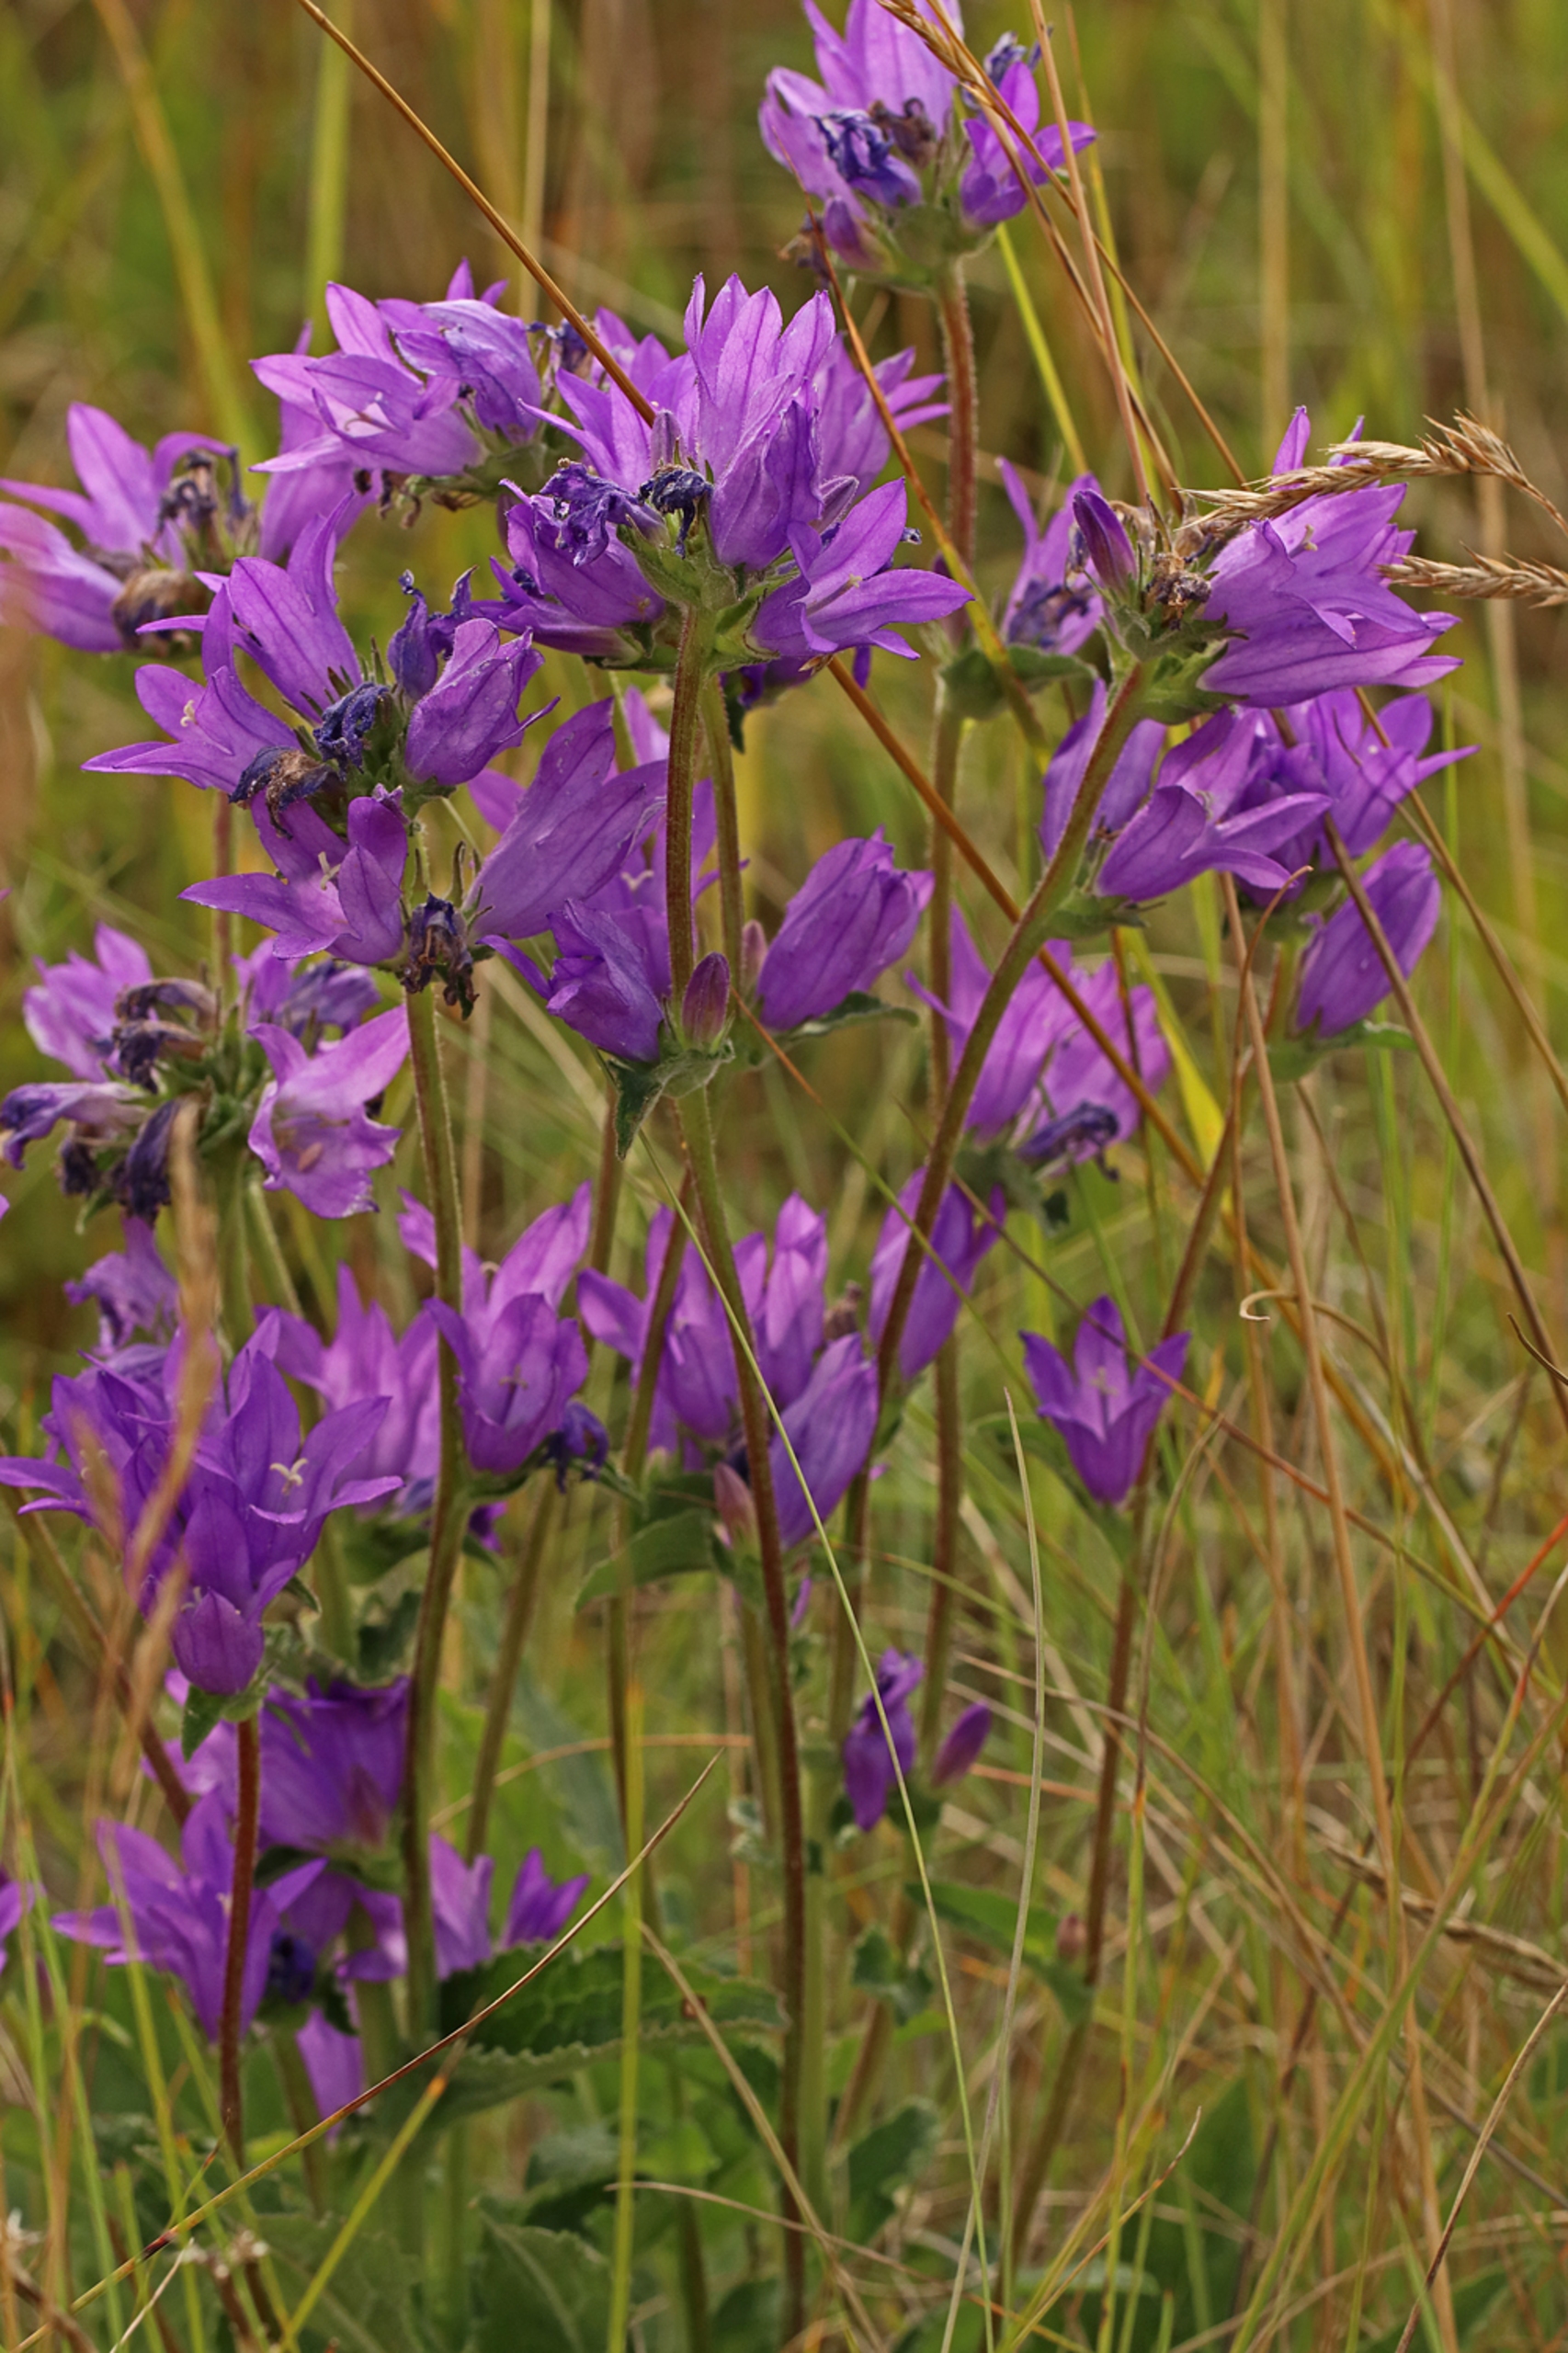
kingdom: Plantae
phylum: Tracheophyta
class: Magnoliopsida
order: Asterales
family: Campanulaceae
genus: Campanula
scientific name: Campanula glomerata
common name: Nøgleblomstret klokke
